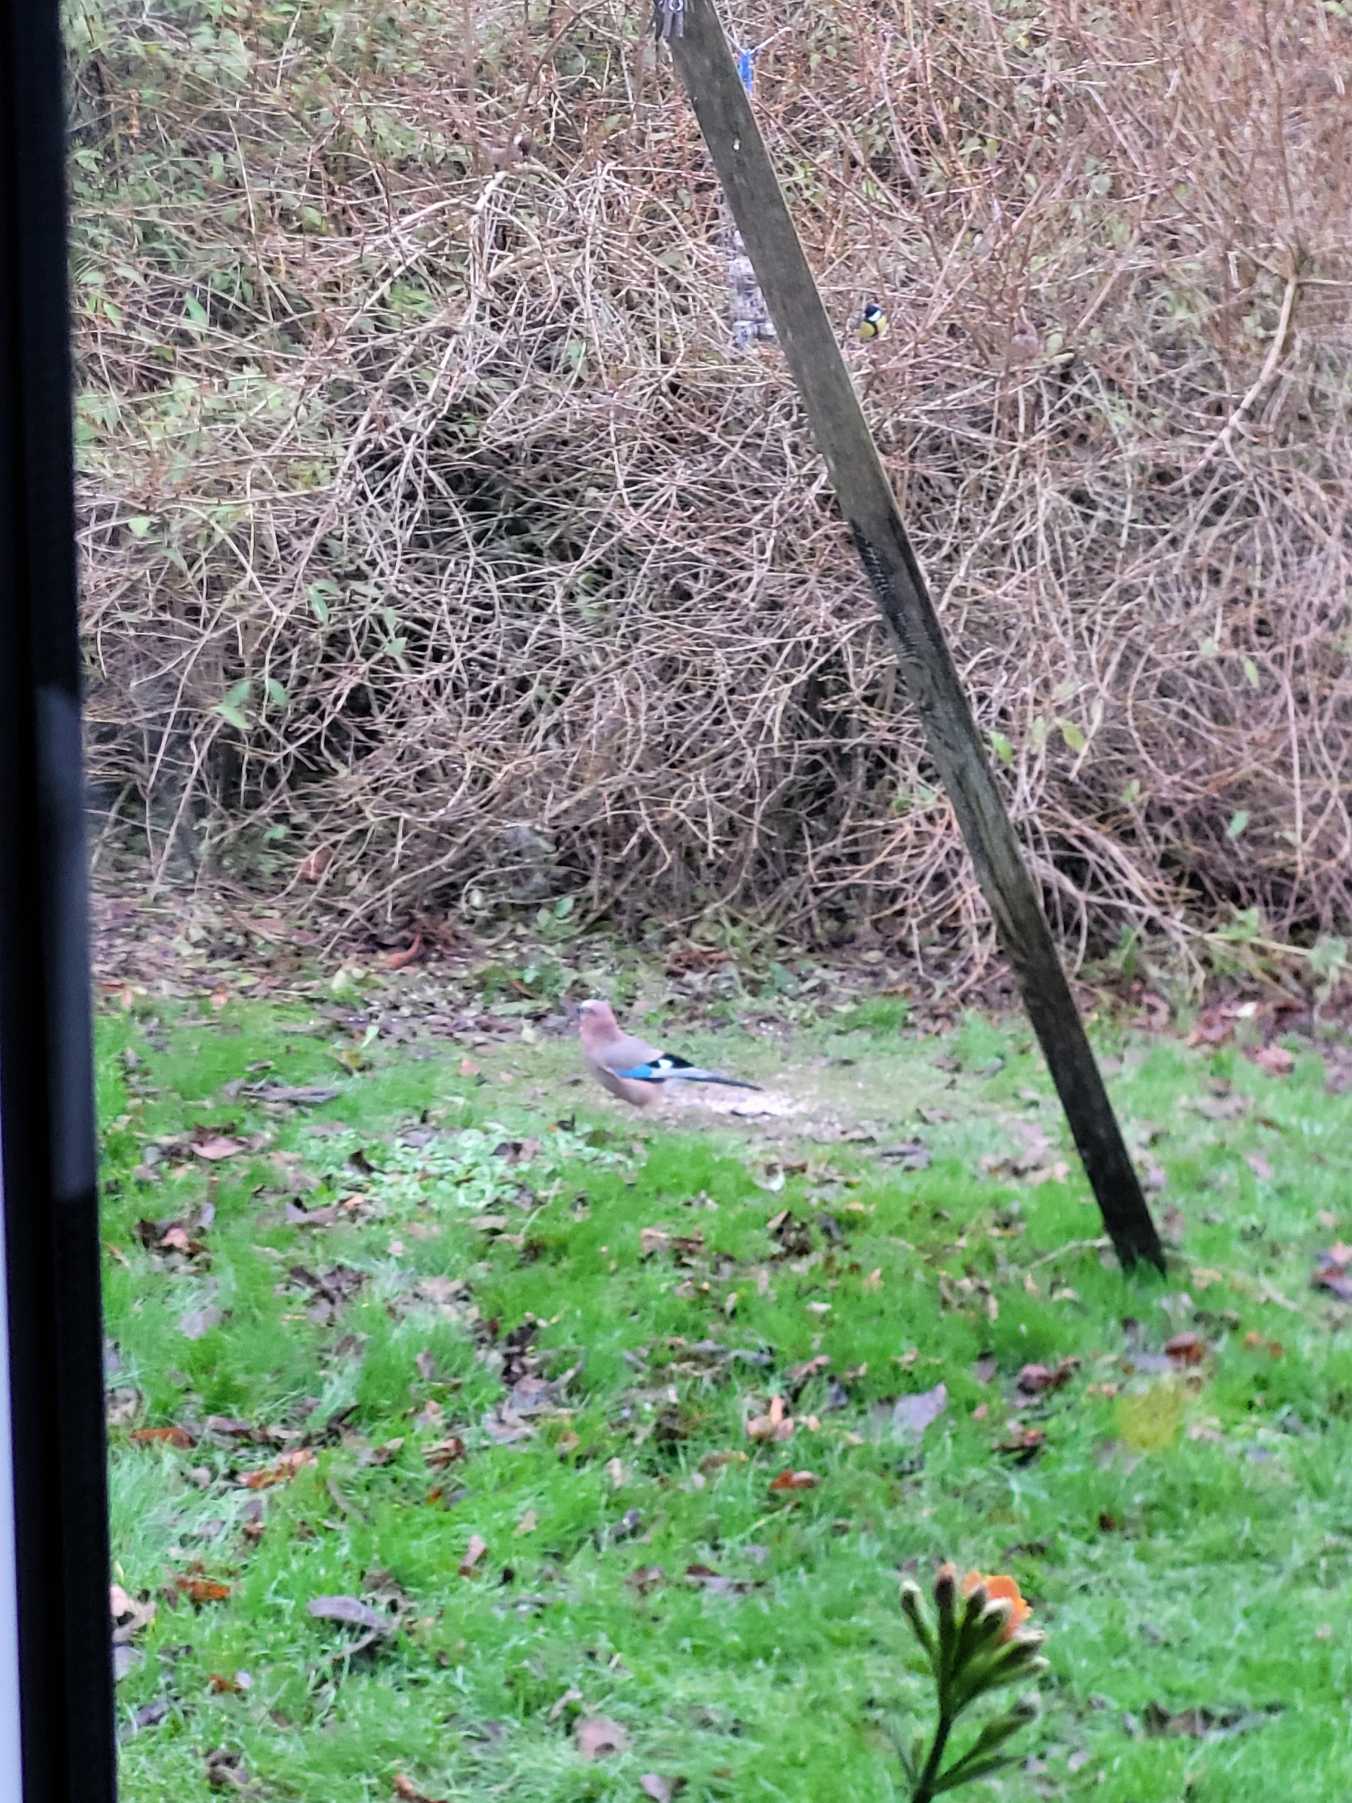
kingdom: Animalia
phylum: Chordata
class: Aves
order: Passeriformes
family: Corvidae
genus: Garrulus
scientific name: Garrulus glandarius
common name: Skovskade
